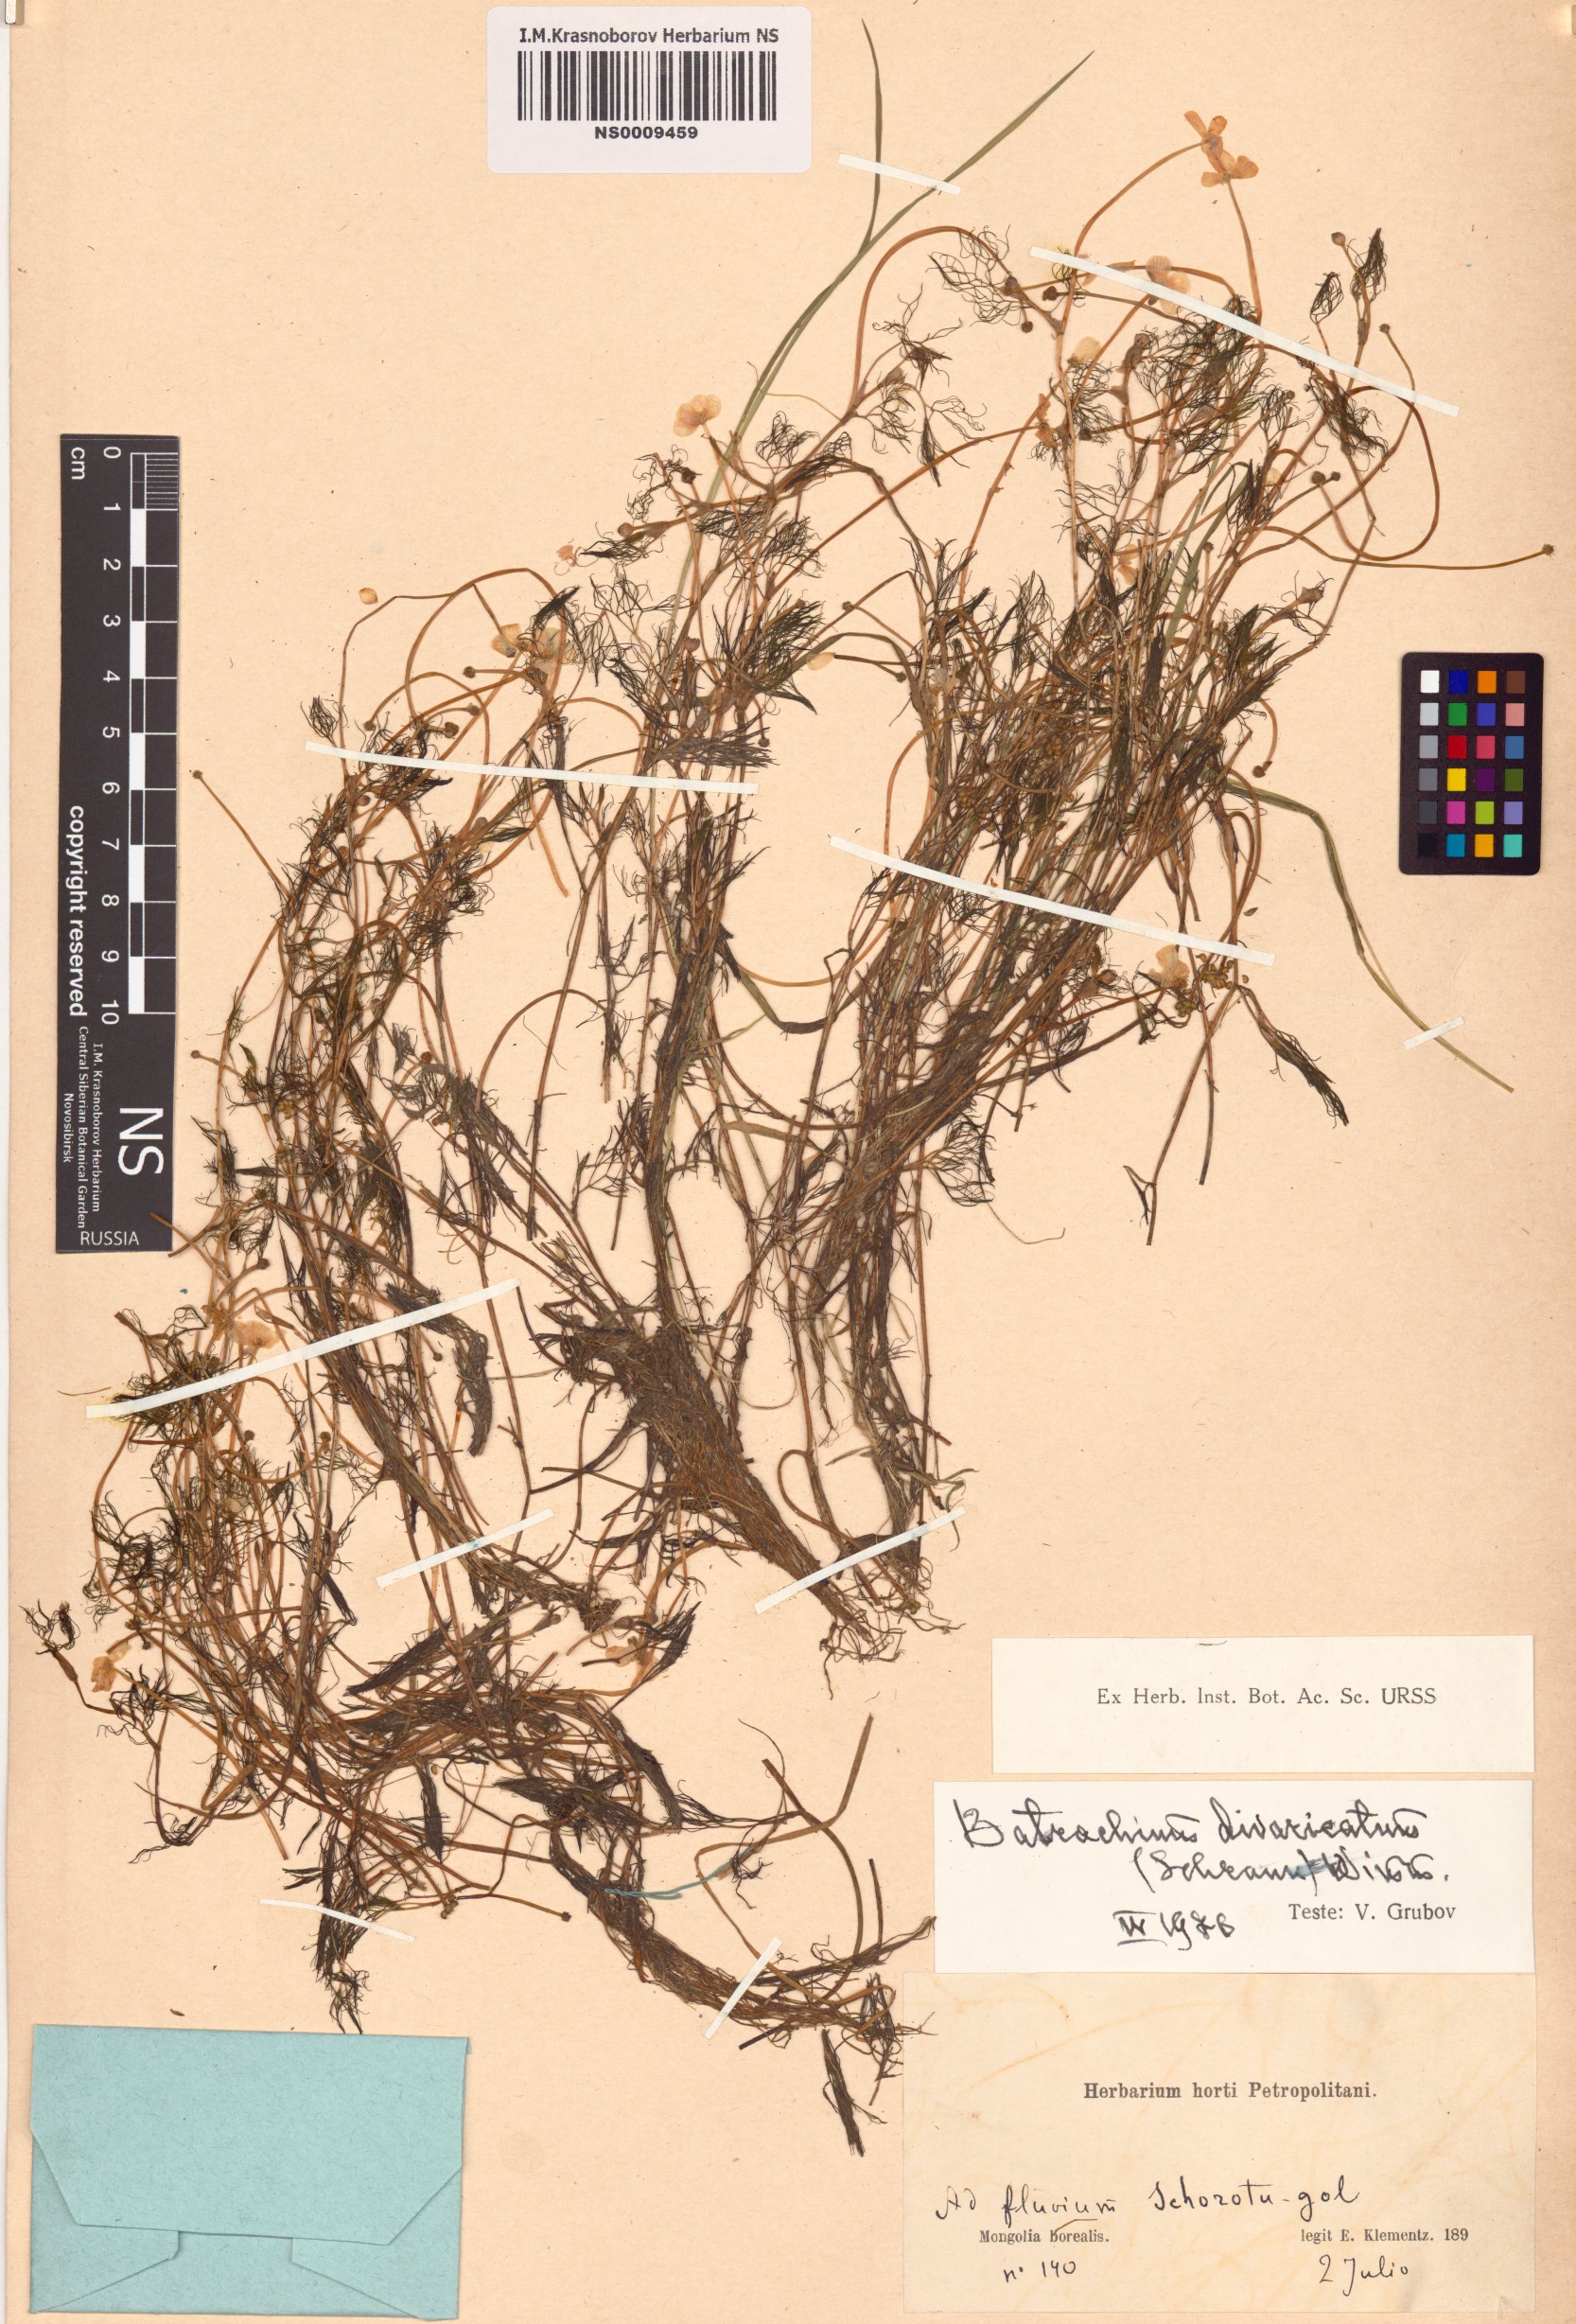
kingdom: Plantae
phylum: Tracheophyta
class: Magnoliopsida
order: Ranunculales
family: Ranunculaceae
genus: Ranunculus
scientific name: Ranunculus trichophyllus
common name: Thread-leaved water-crowfoot
